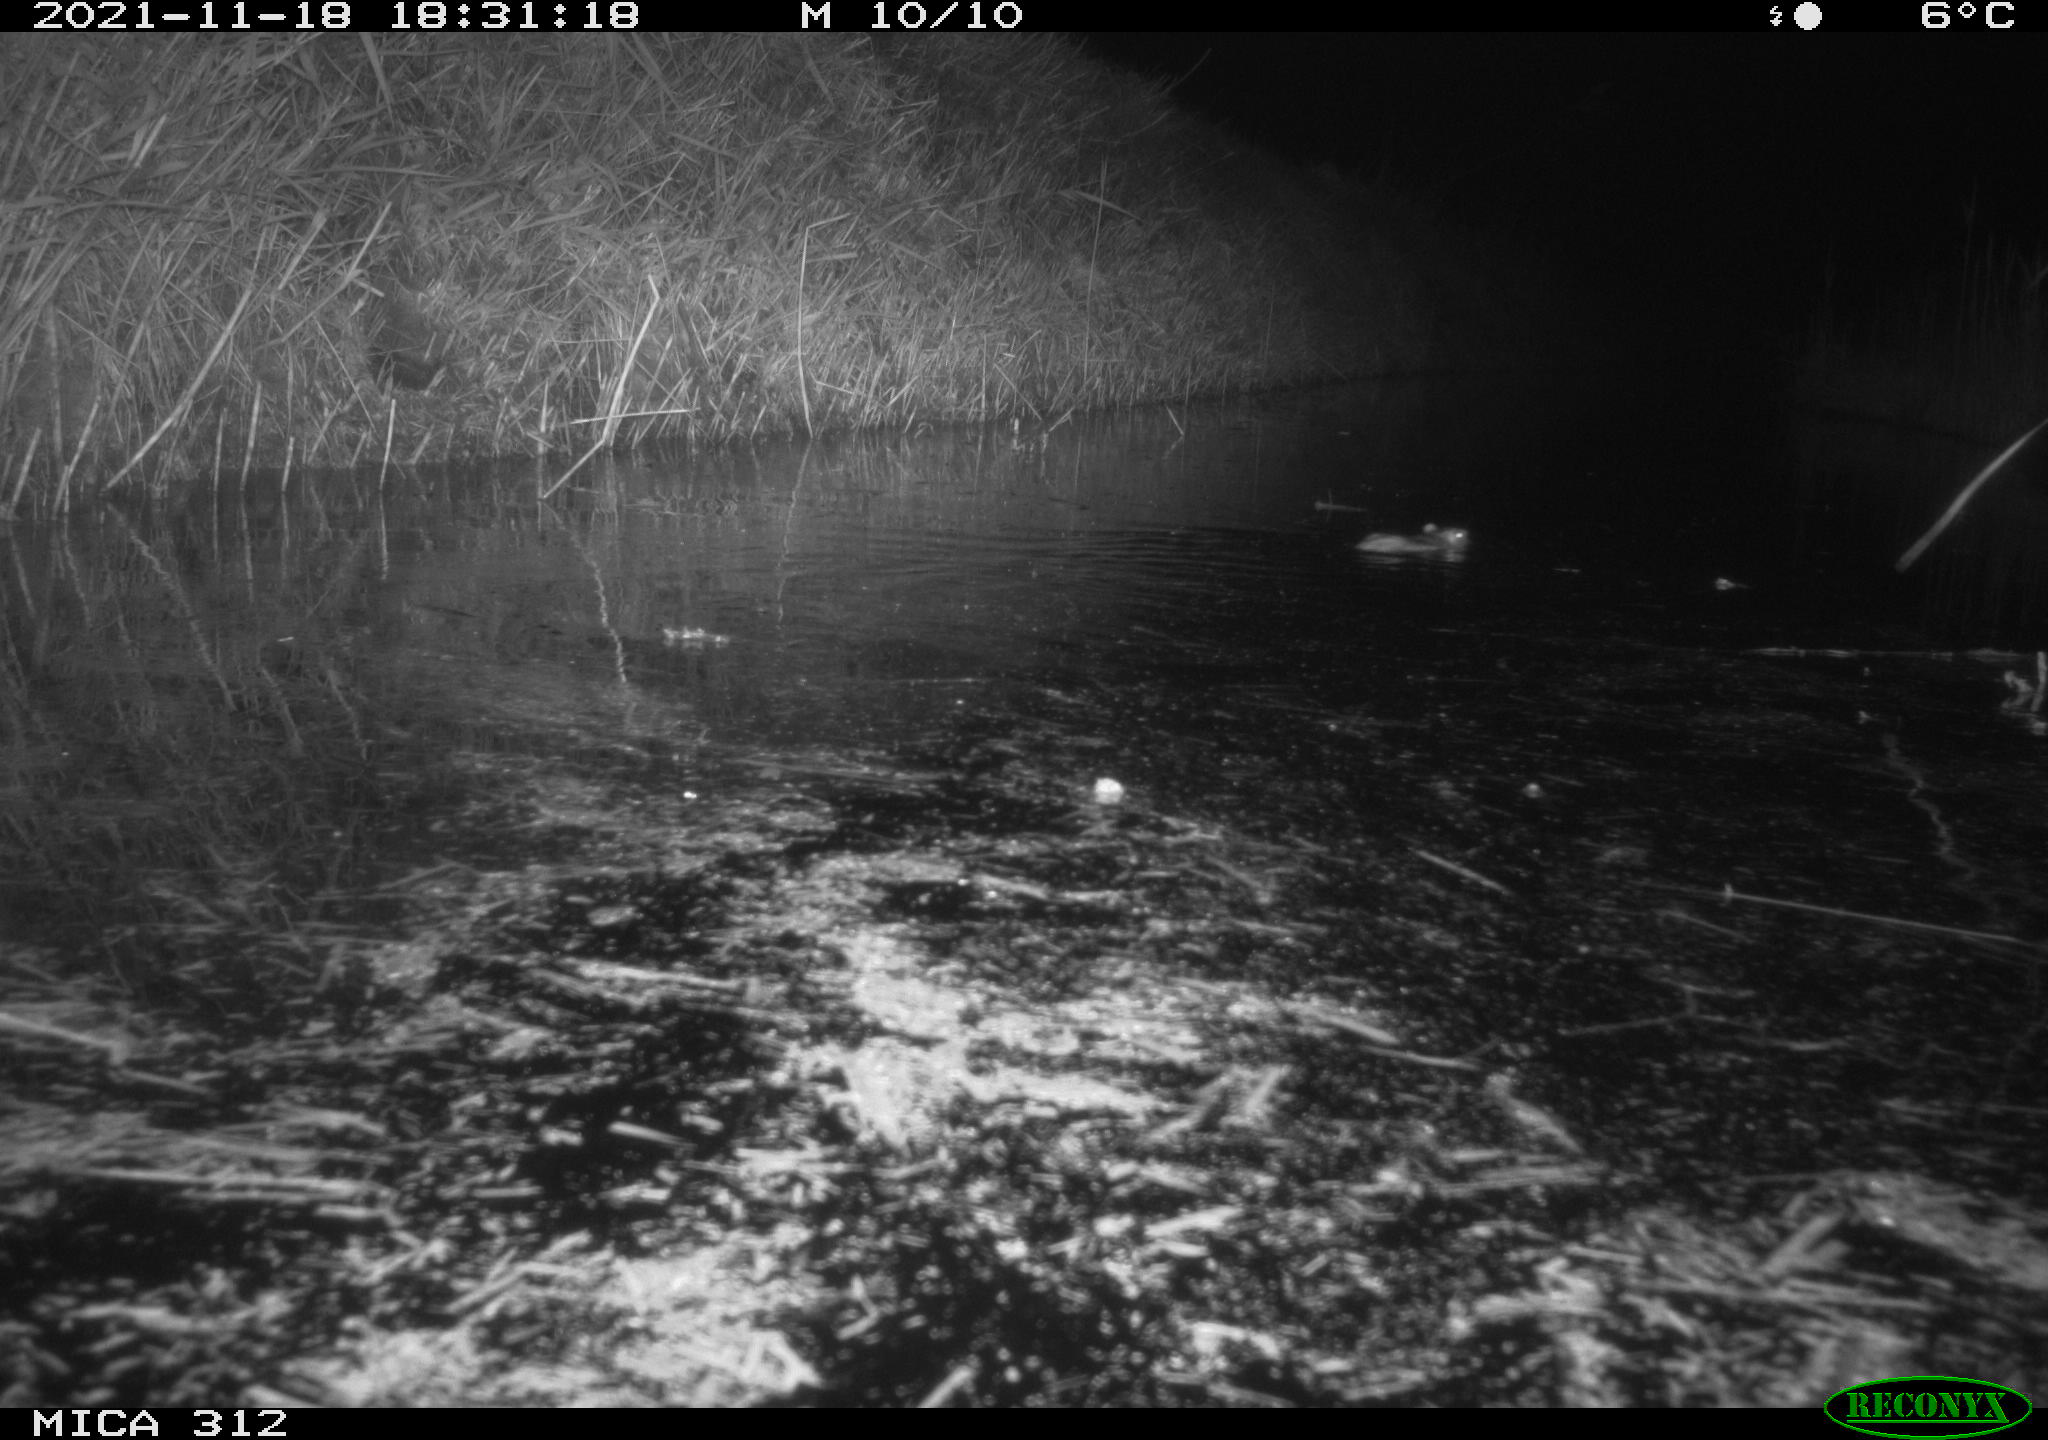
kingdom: Animalia
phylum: Chordata
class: Mammalia
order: Rodentia
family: Muridae
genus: Rattus
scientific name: Rattus norvegicus
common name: Brown rat
